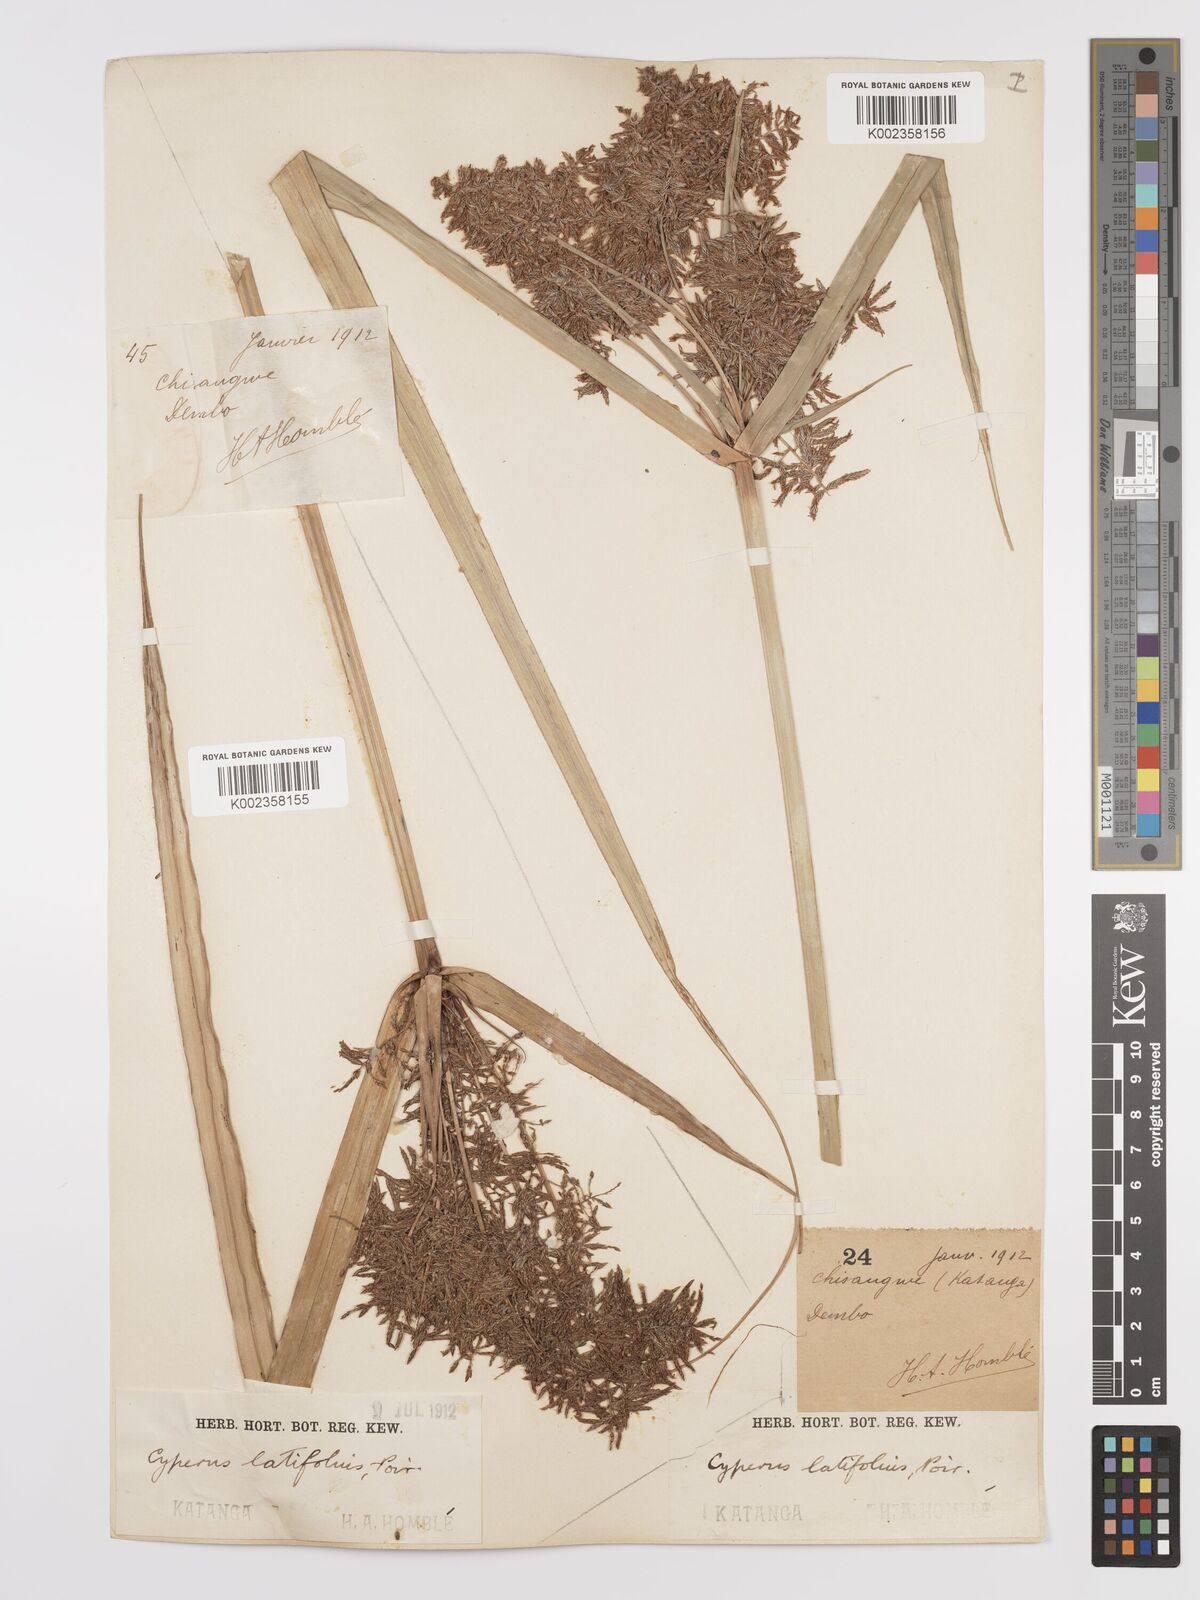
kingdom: Plantae
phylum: Tracheophyta
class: Liliopsida
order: Poales
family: Cyperaceae
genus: Cyperus
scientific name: Cyperus latifolius
